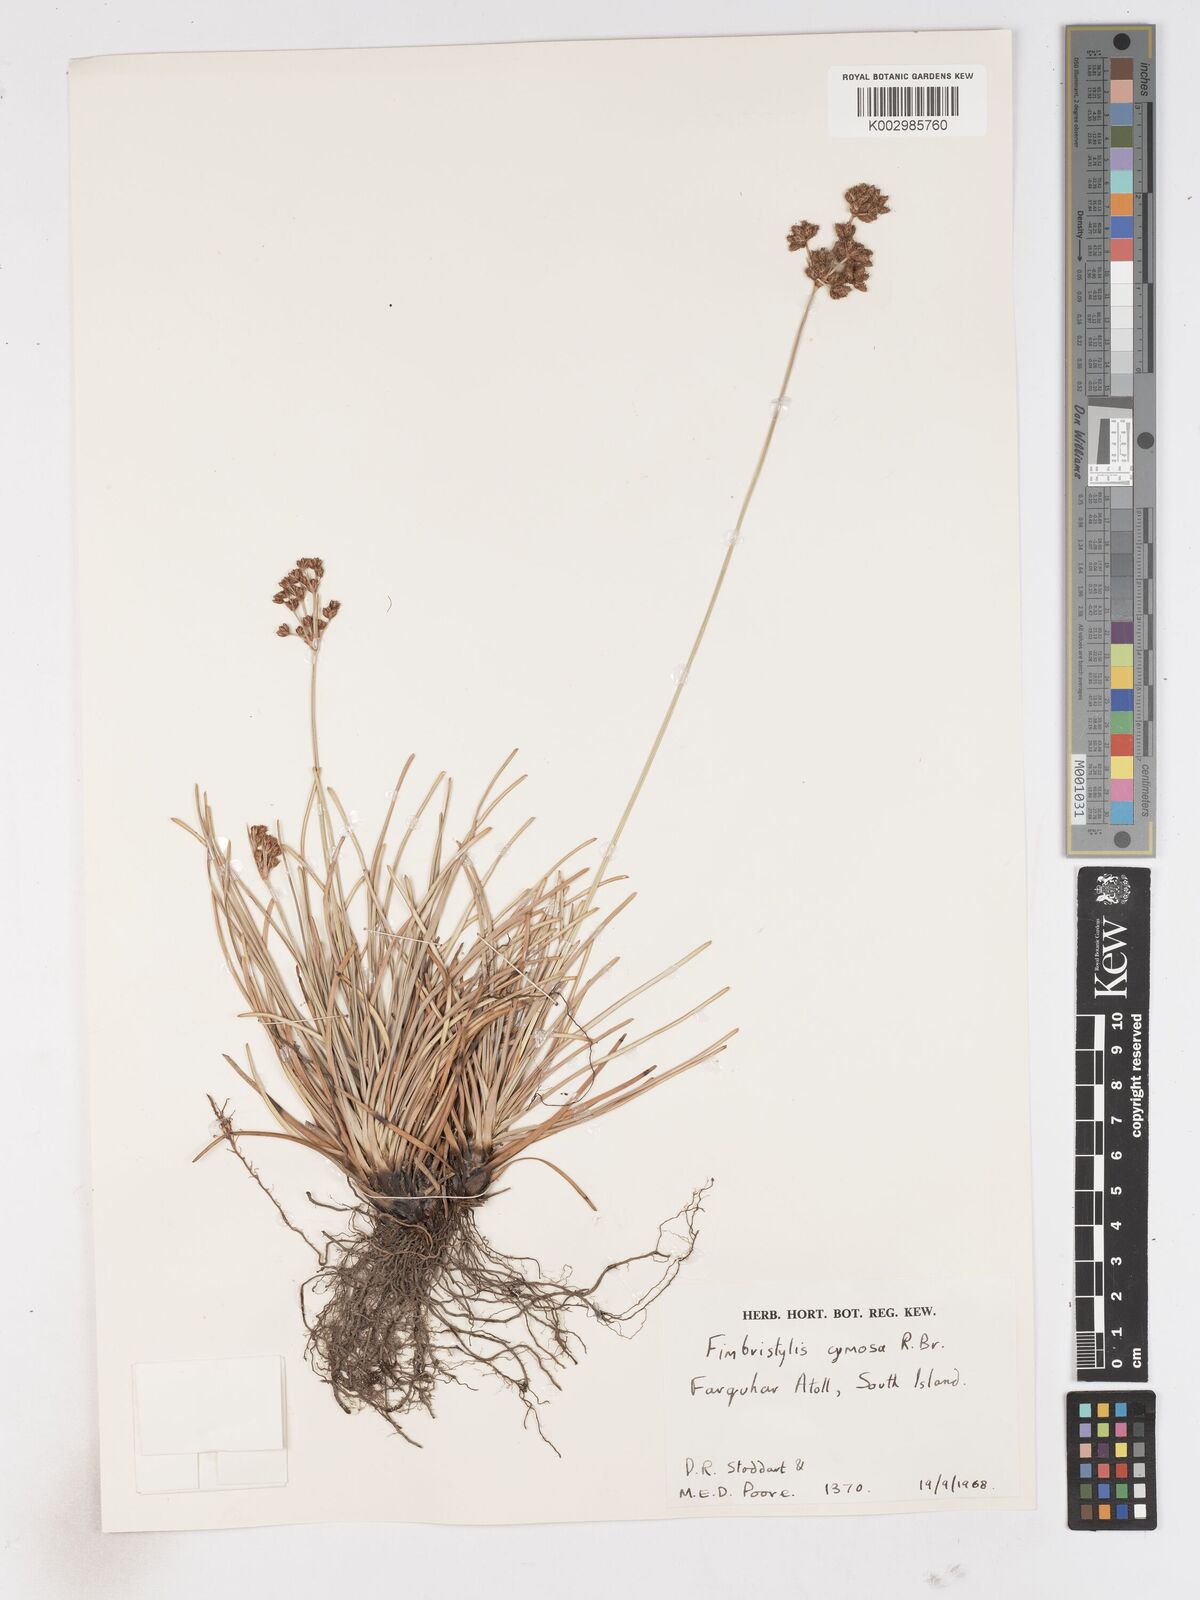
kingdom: Plantae
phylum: Tracheophyta
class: Liliopsida
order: Poales
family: Cyperaceae
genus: Fimbristylis
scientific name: Fimbristylis cymosa
